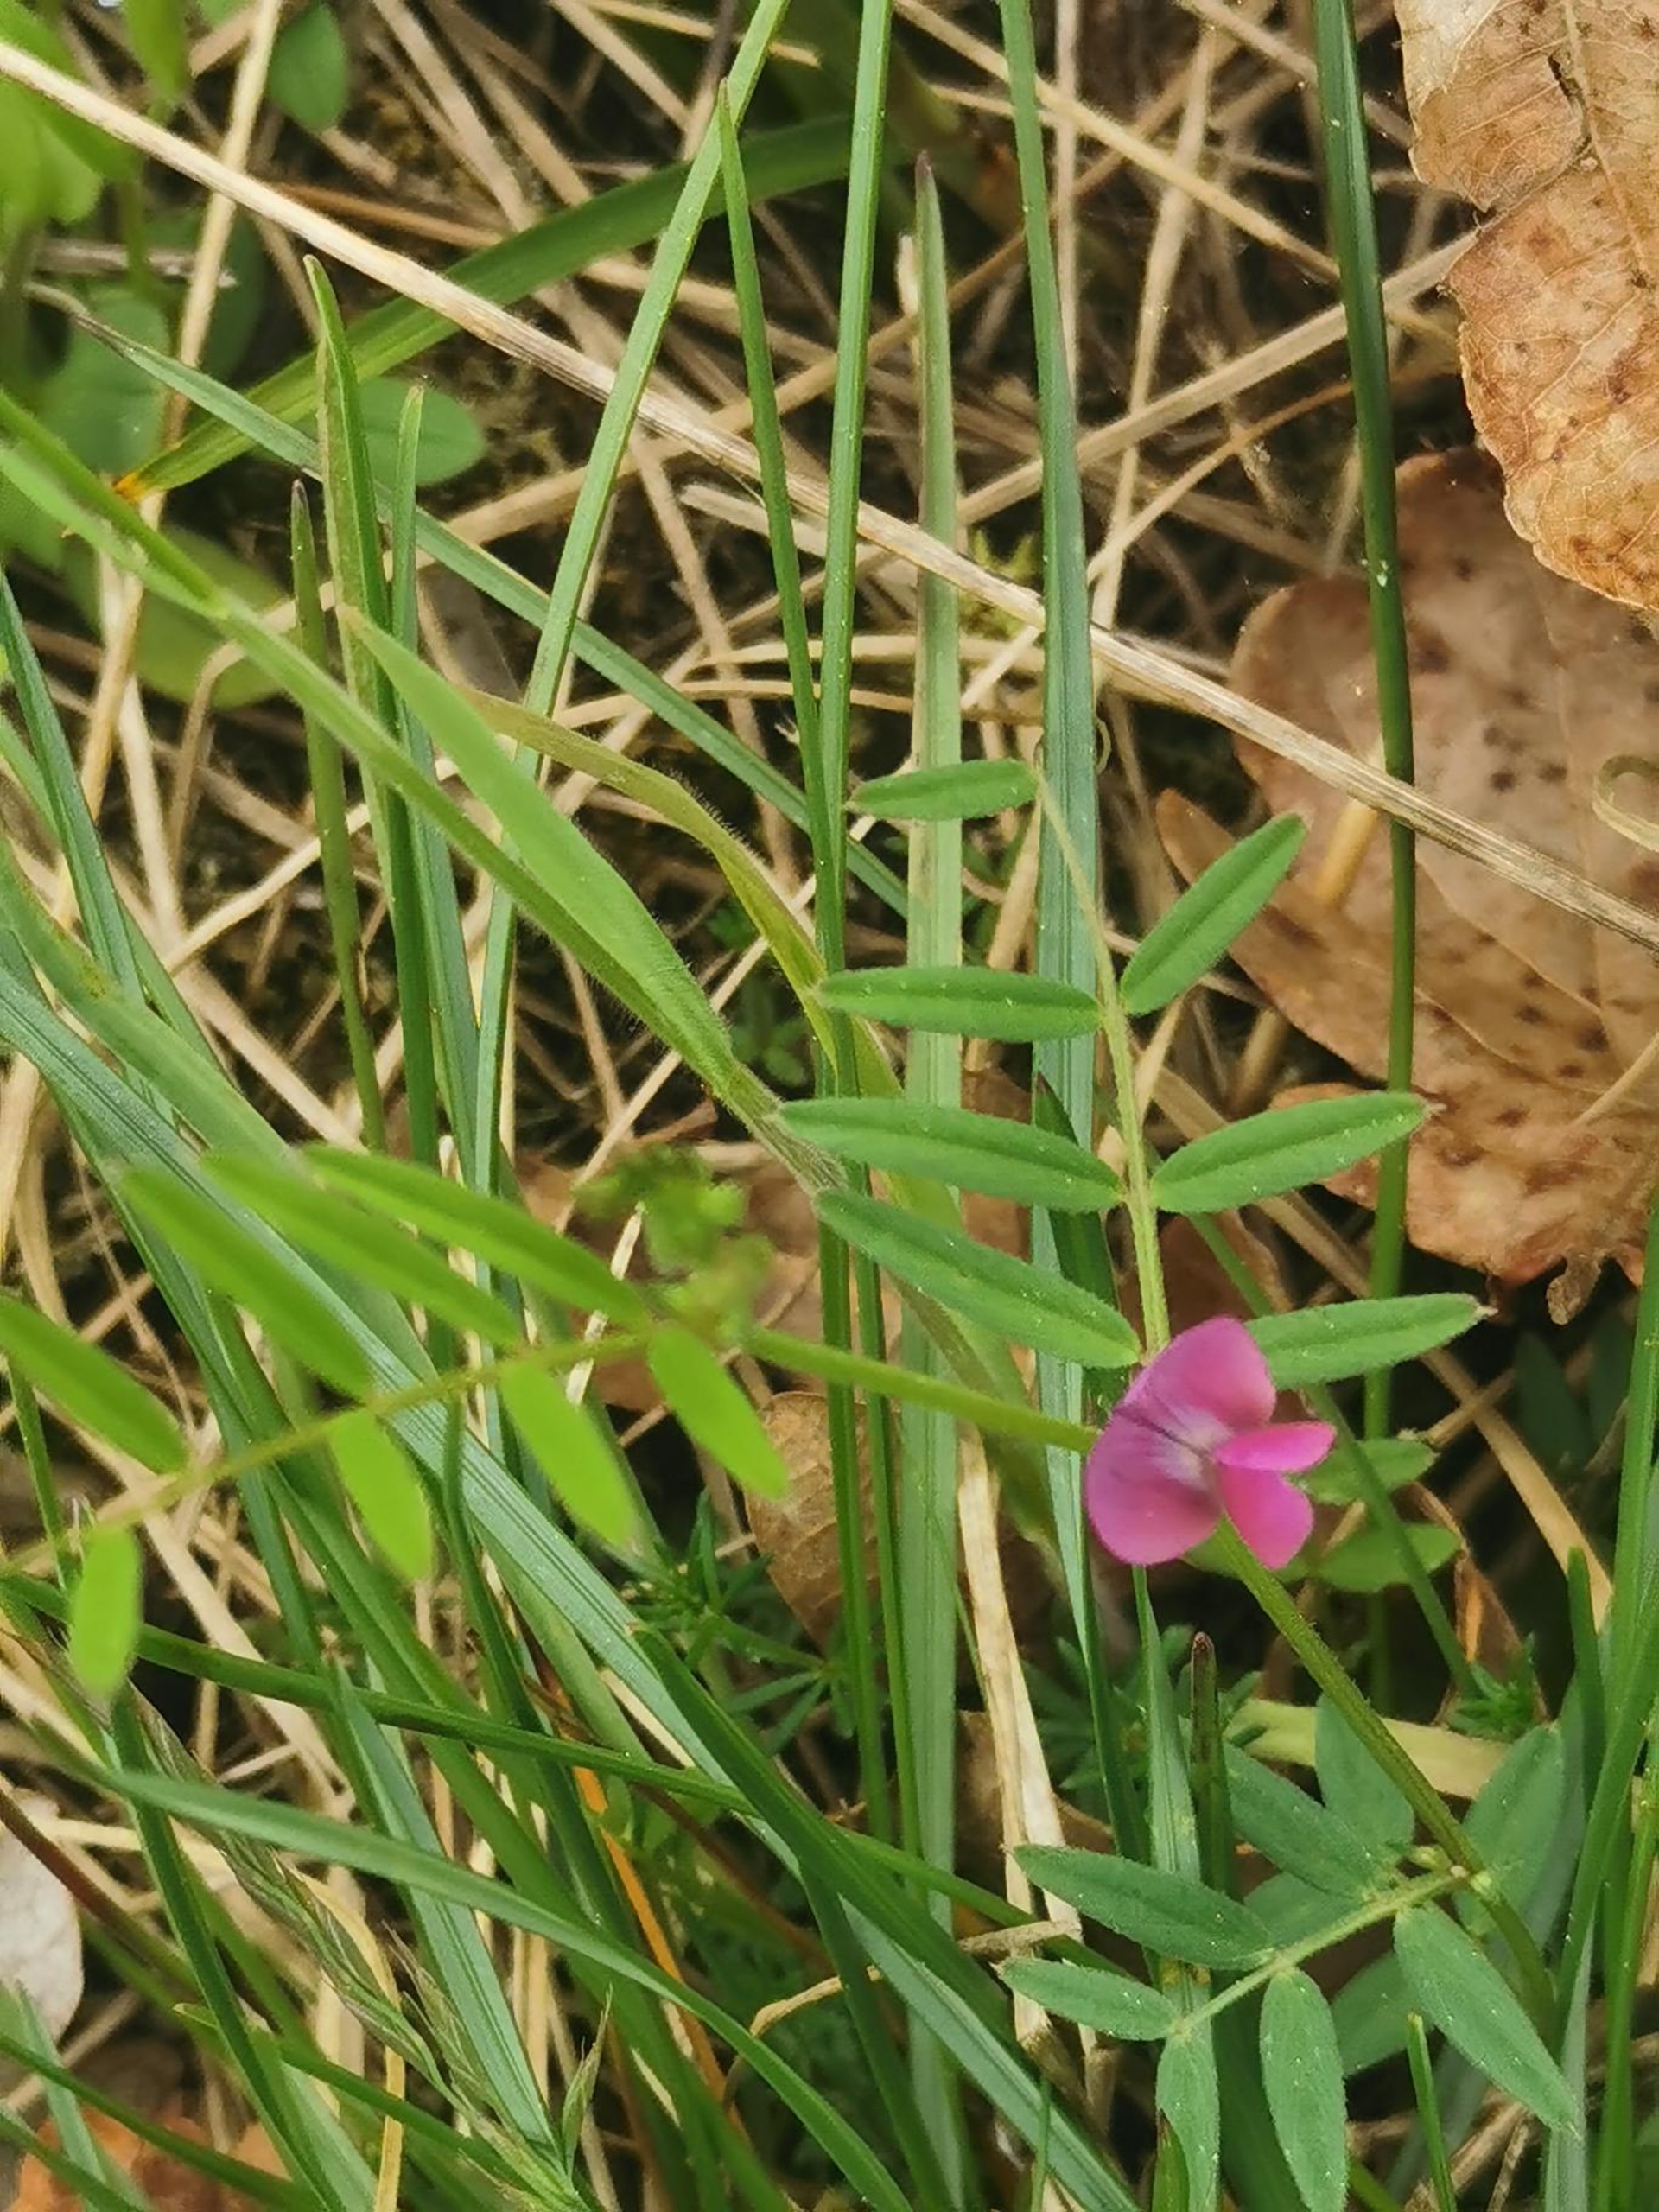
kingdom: Plantae
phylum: Tracheophyta
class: Magnoliopsida
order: Fabales
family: Fabaceae
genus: Vicia
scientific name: Vicia sativa
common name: Smalbladet vikke
